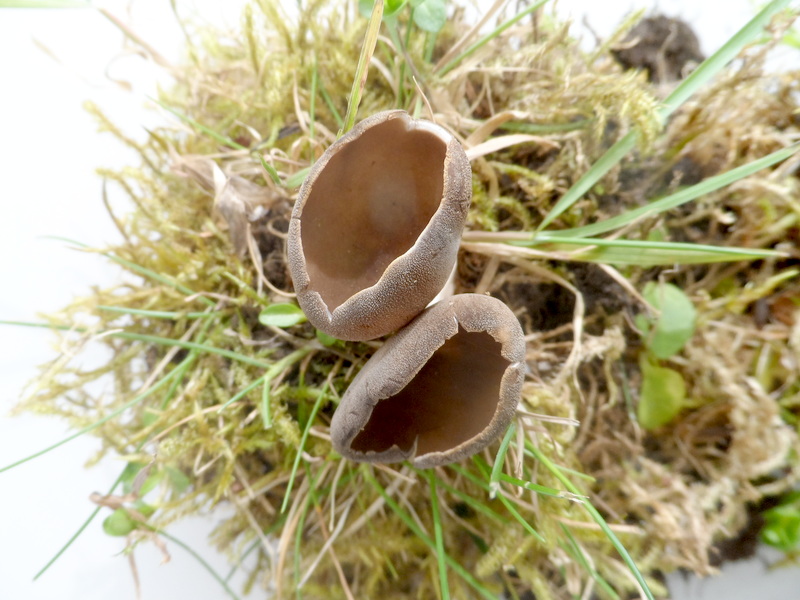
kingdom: Fungi
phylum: Ascomycota
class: Pezizomycetes
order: Pezizales
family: Helvellaceae
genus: Dissingia
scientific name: Dissingia leucomelaena
